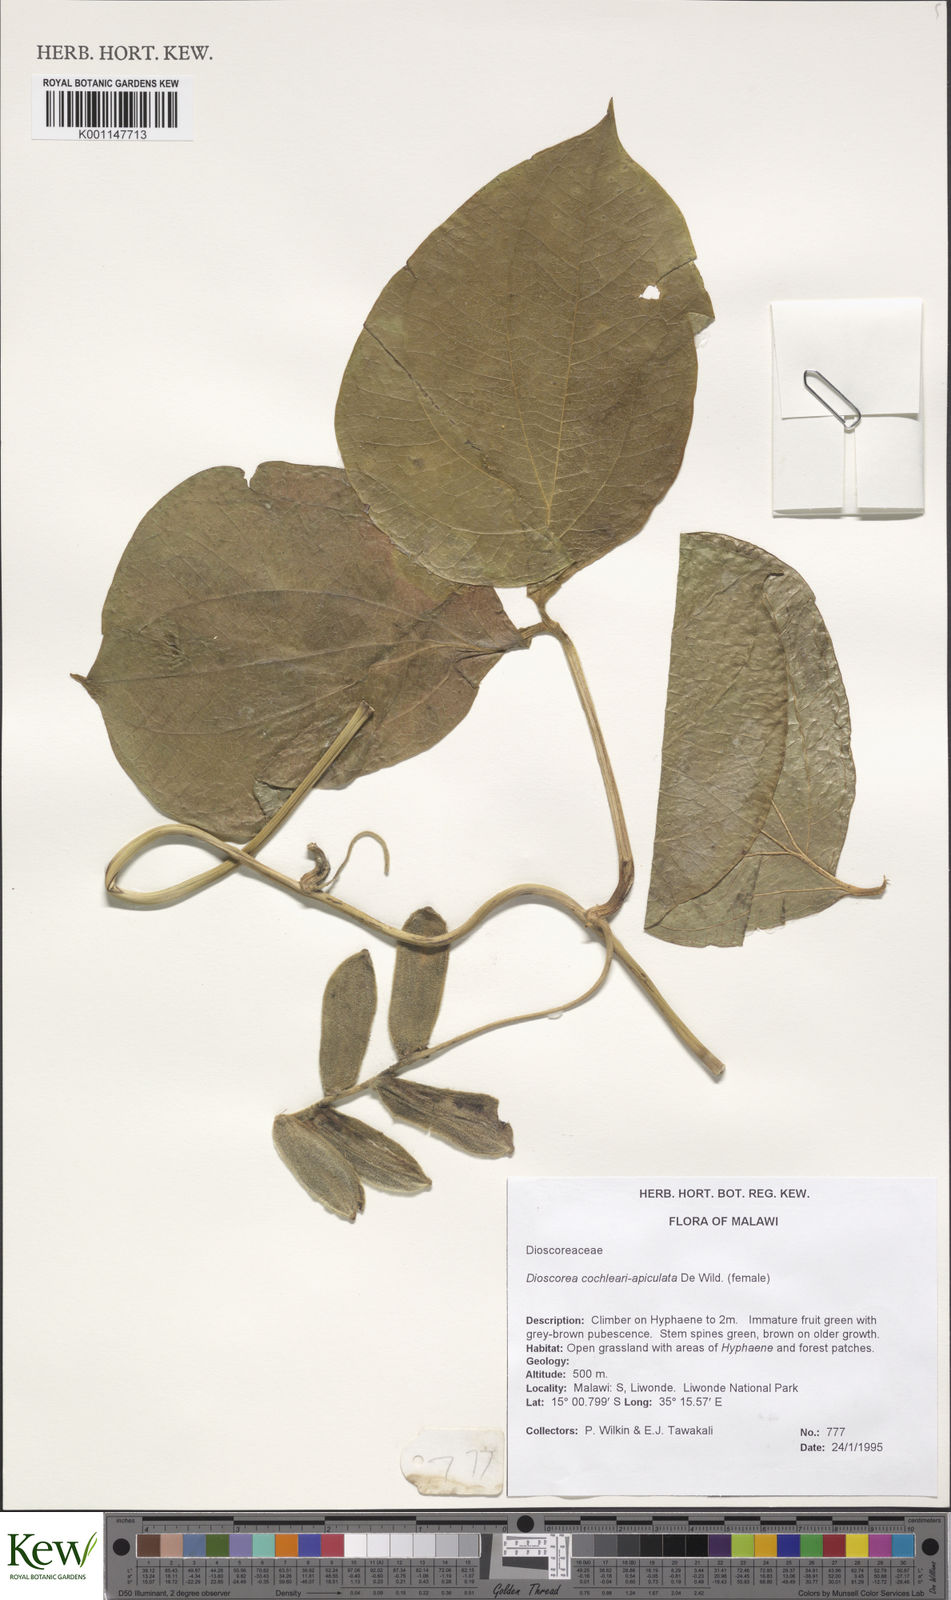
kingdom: Plantae
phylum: Tracheophyta
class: Liliopsida
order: Dioscoreales
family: Dioscoreaceae
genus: Dioscorea
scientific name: Dioscorea cochleariapiculata
